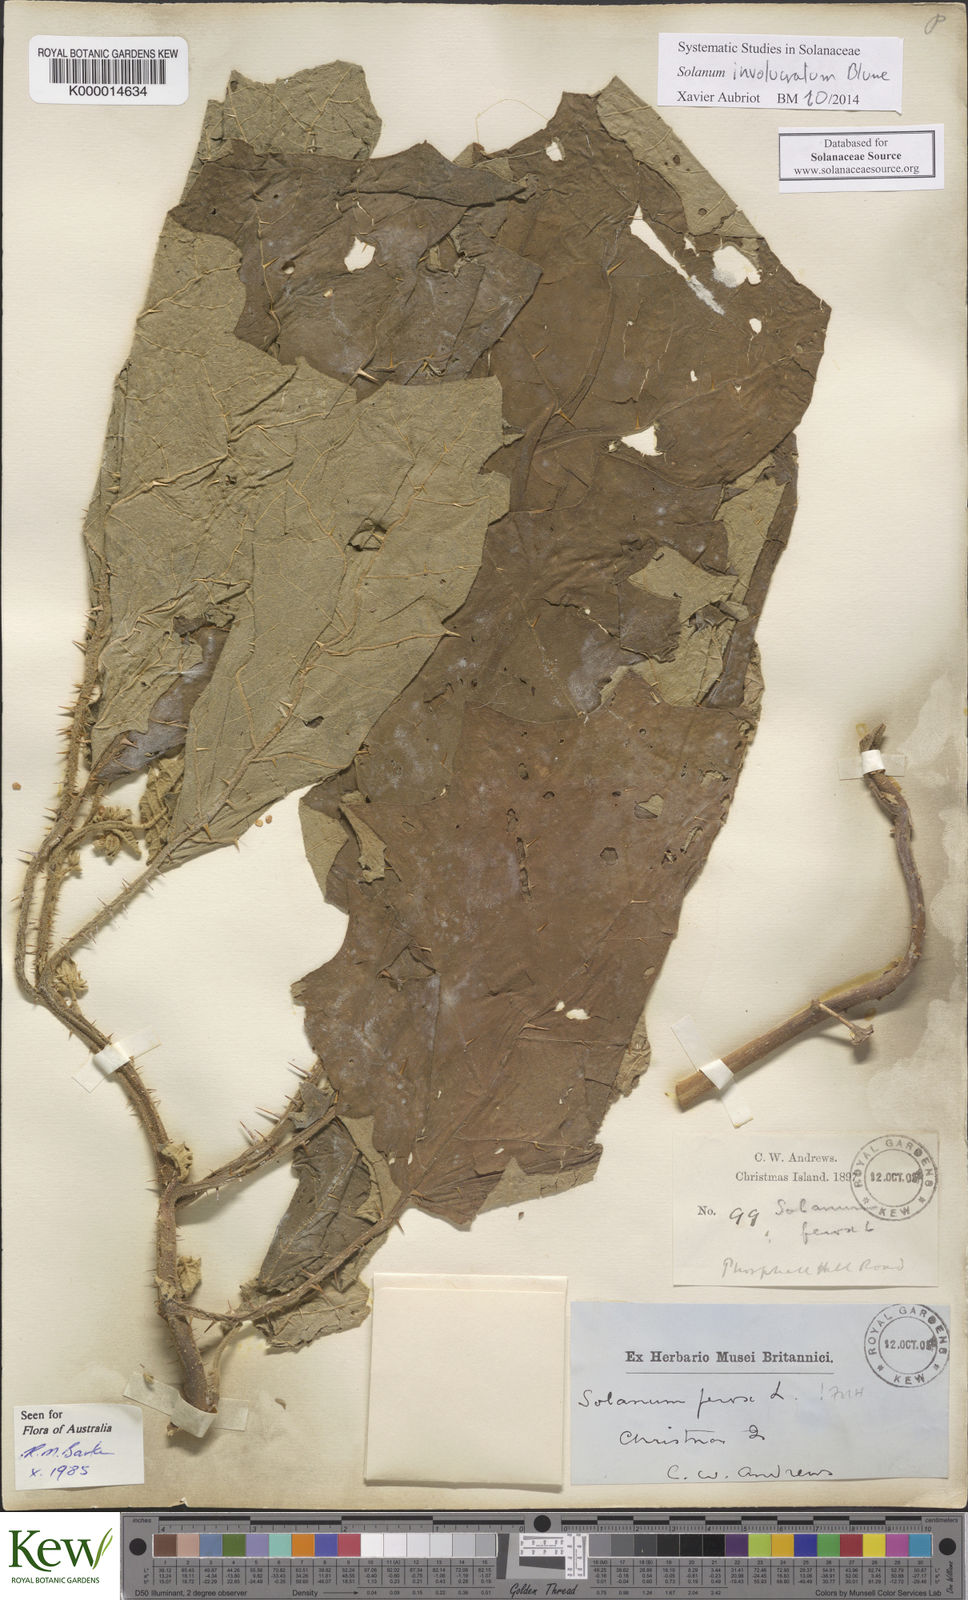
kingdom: Plantae
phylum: Tracheophyta
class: Magnoliopsida
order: Solanales
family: Solanaceae
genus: Solanum
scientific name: Solanum involucratum
